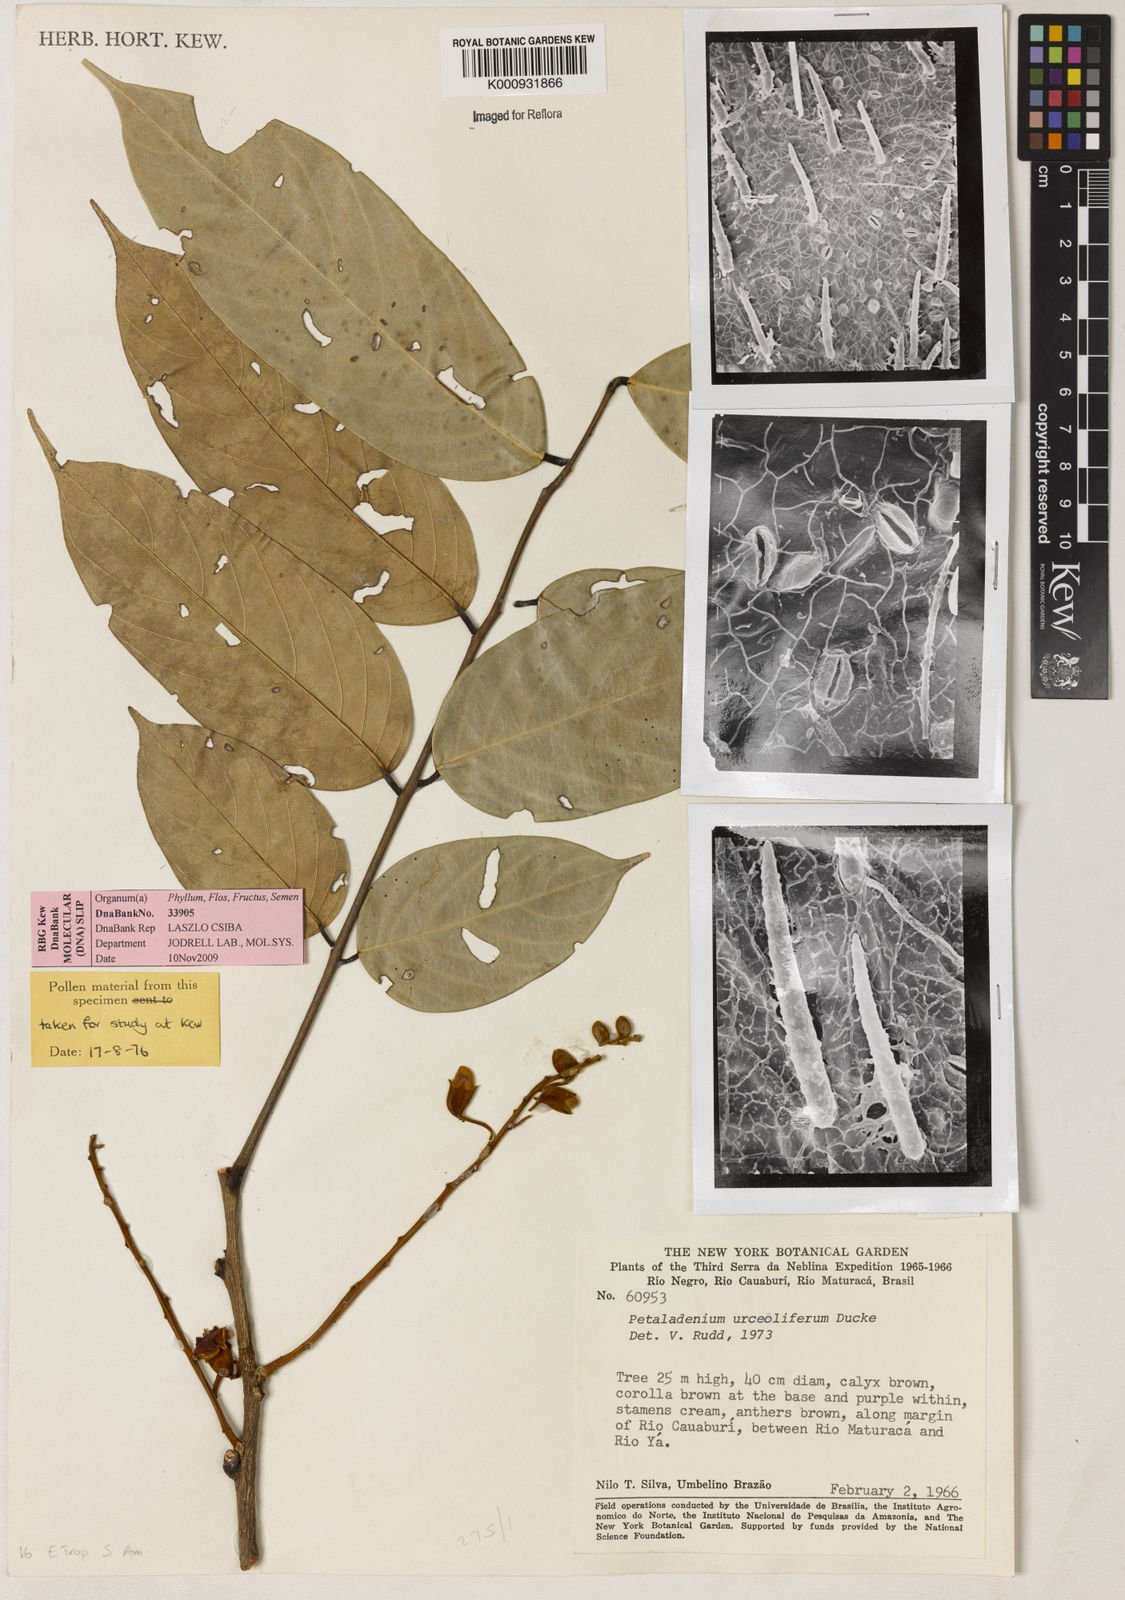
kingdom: Plantae
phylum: Tracheophyta
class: Magnoliopsida
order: Fabales
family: Fabaceae
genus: Petaladenium
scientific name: Petaladenium urceoliferum
